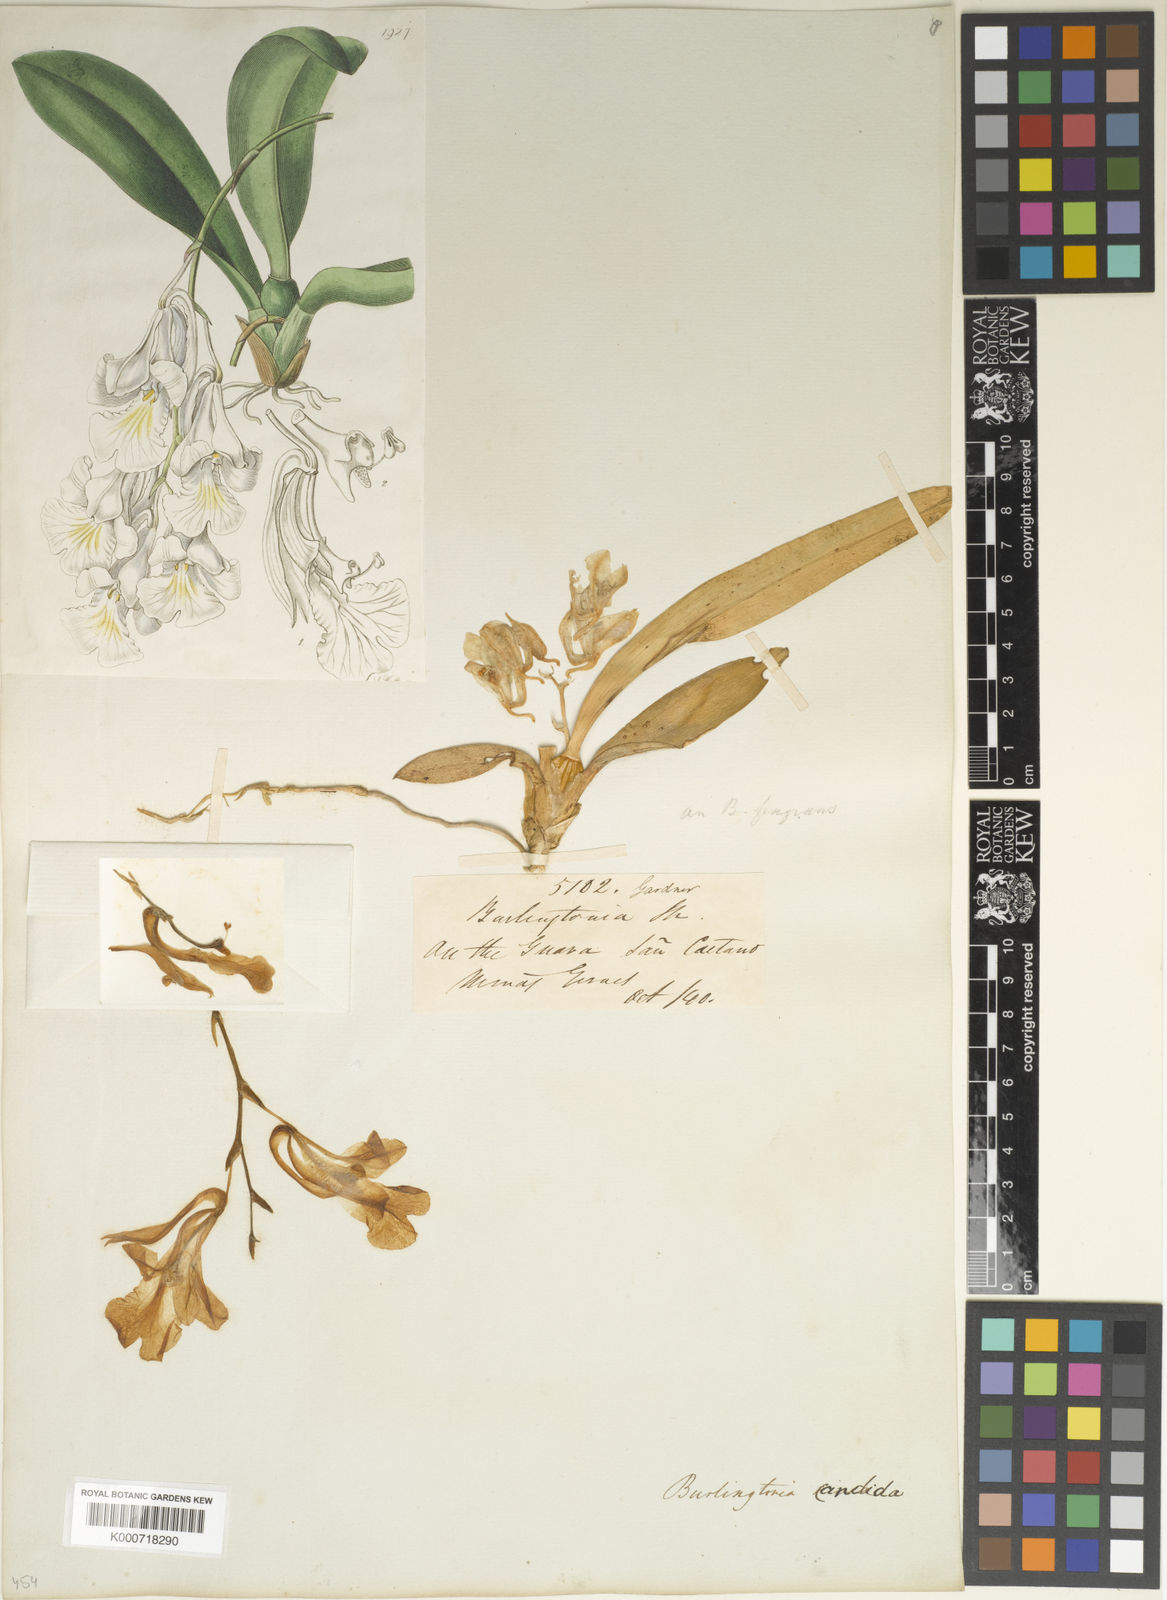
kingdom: Plantae
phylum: Tracheophyta
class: Liliopsida
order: Asparagales
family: Orchidaceae
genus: Rodriguezia
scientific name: Rodriguezia candida
